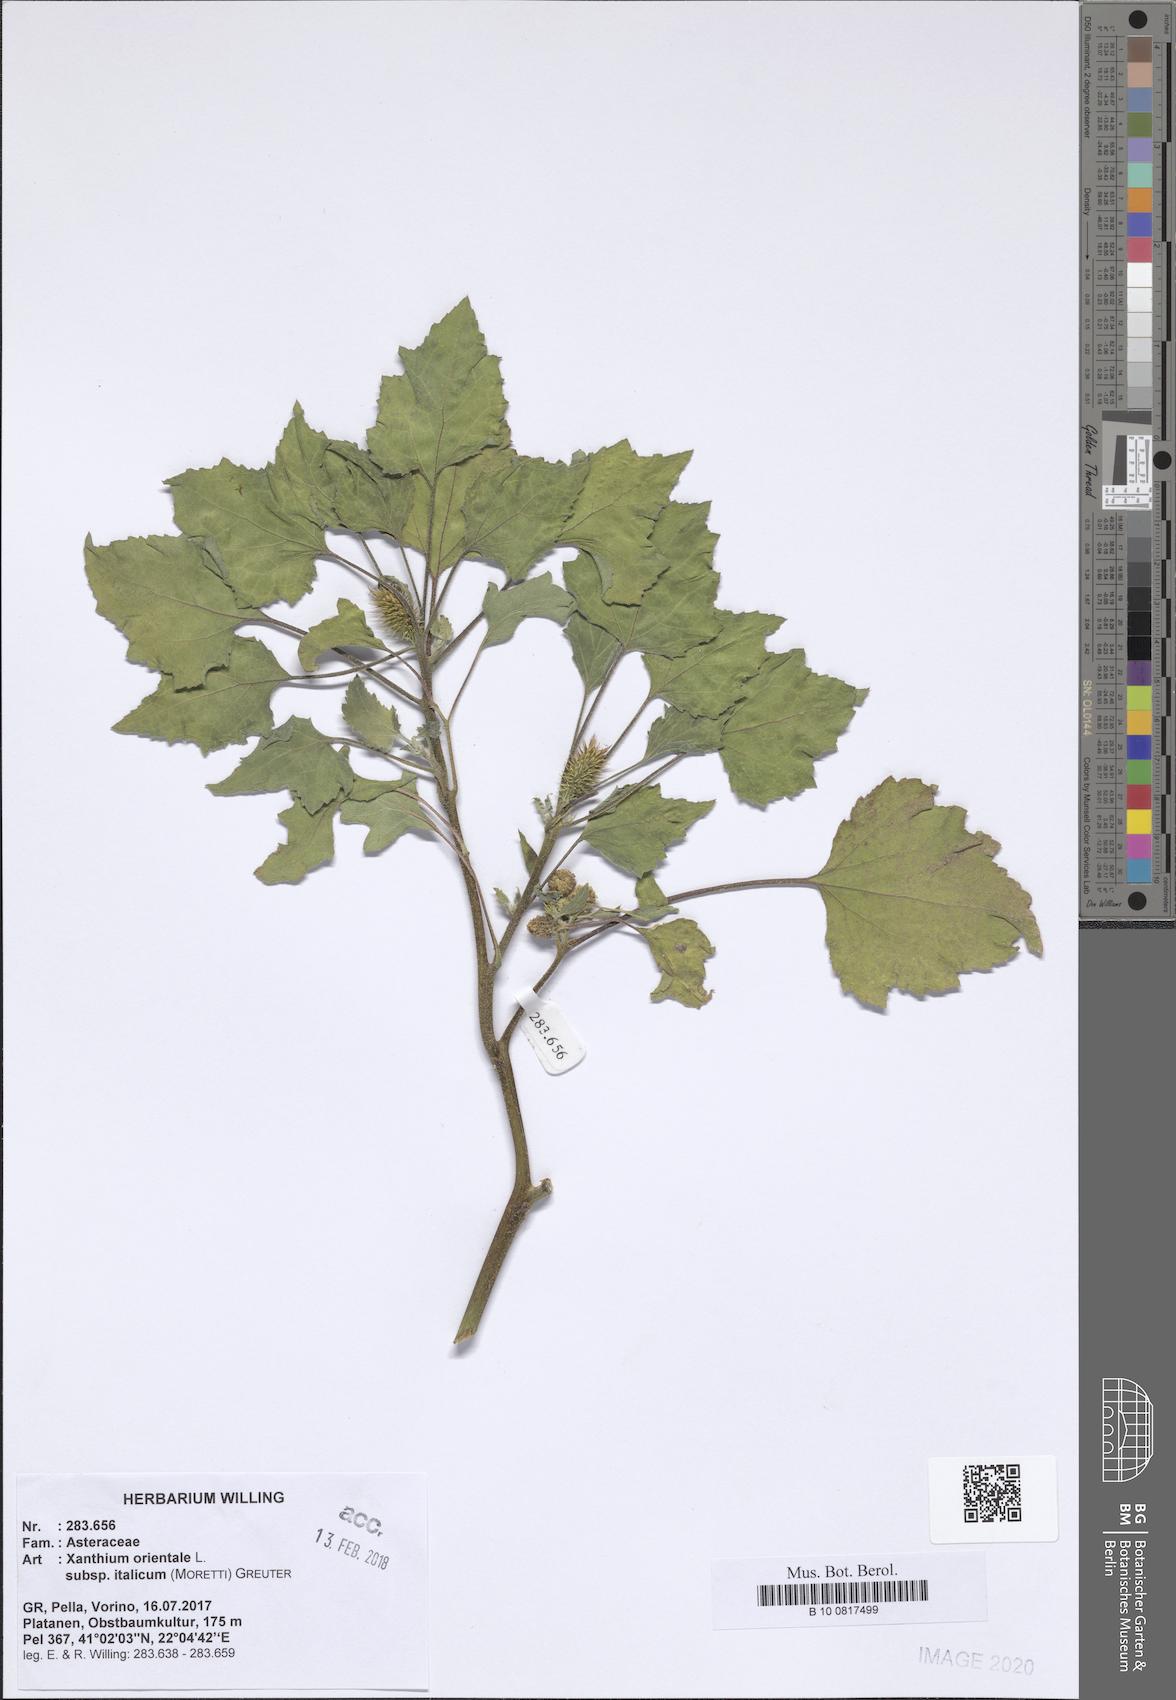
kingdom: Plantae
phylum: Tracheophyta
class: Magnoliopsida
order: Asterales
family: Asteraceae
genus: Xanthium
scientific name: Xanthium orientale
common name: Californian burr
